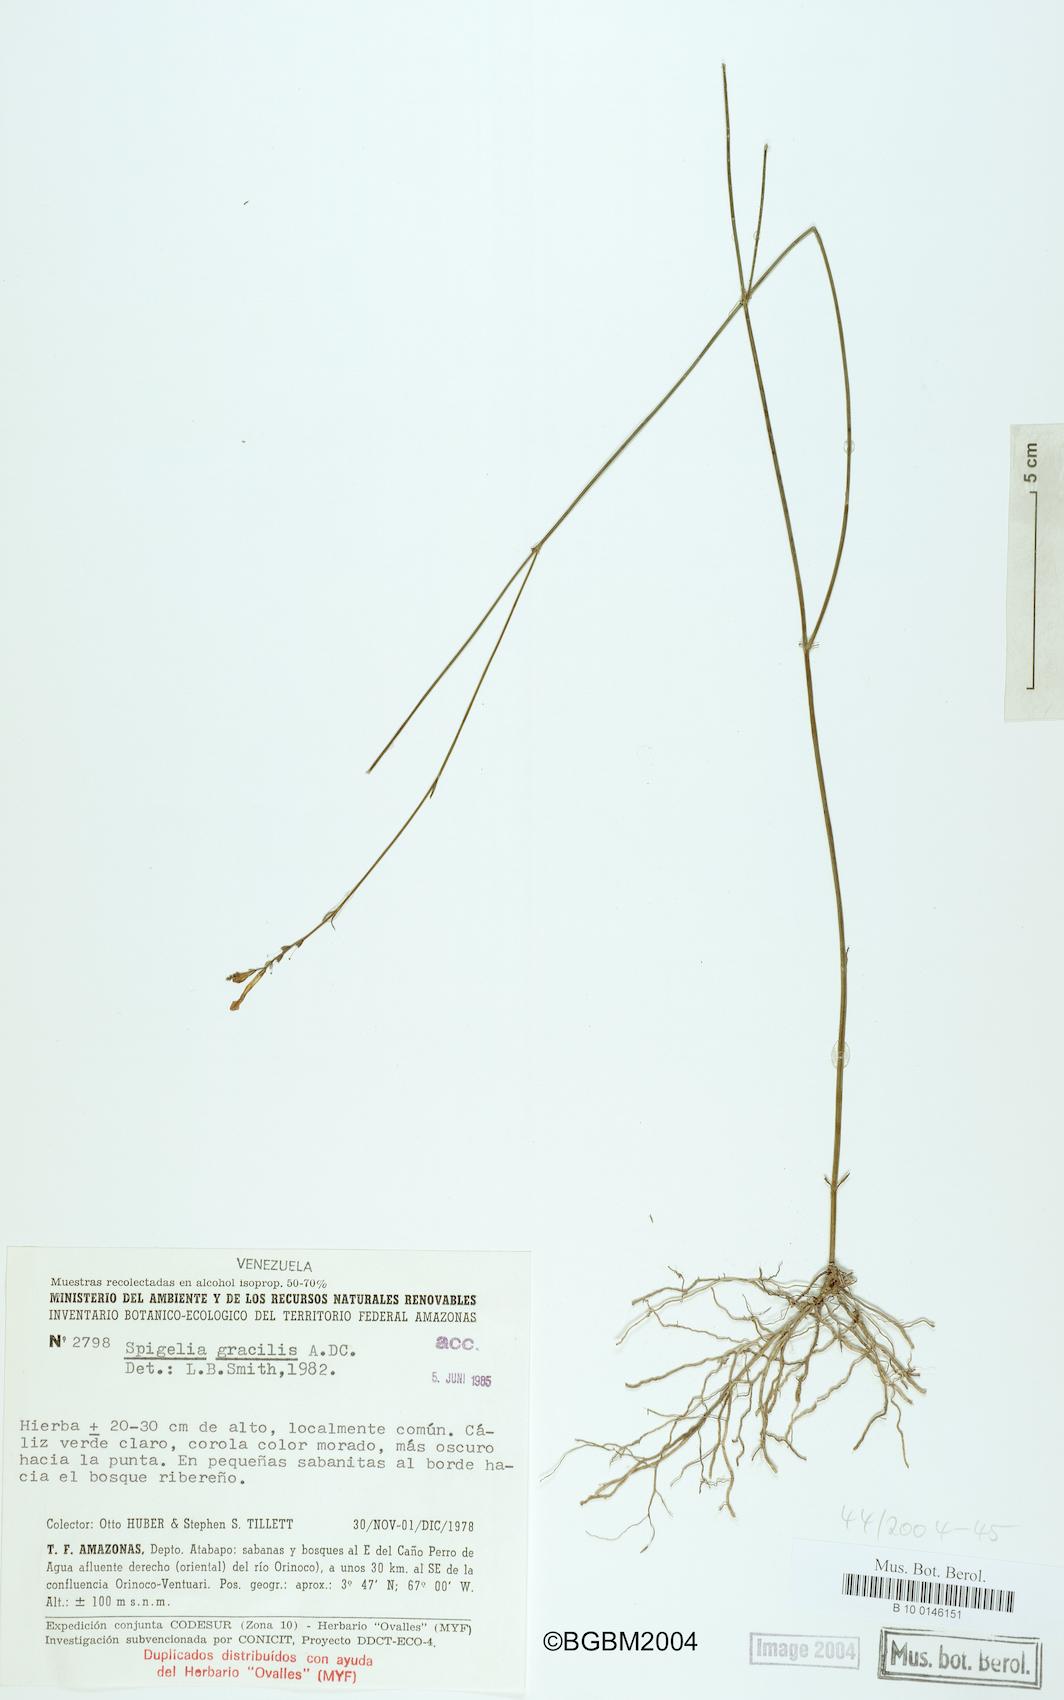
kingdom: Plantae
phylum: Tracheophyta
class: Magnoliopsida
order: Gentianales
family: Loganiaceae
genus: Spigelia
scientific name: Spigelia amazonica
